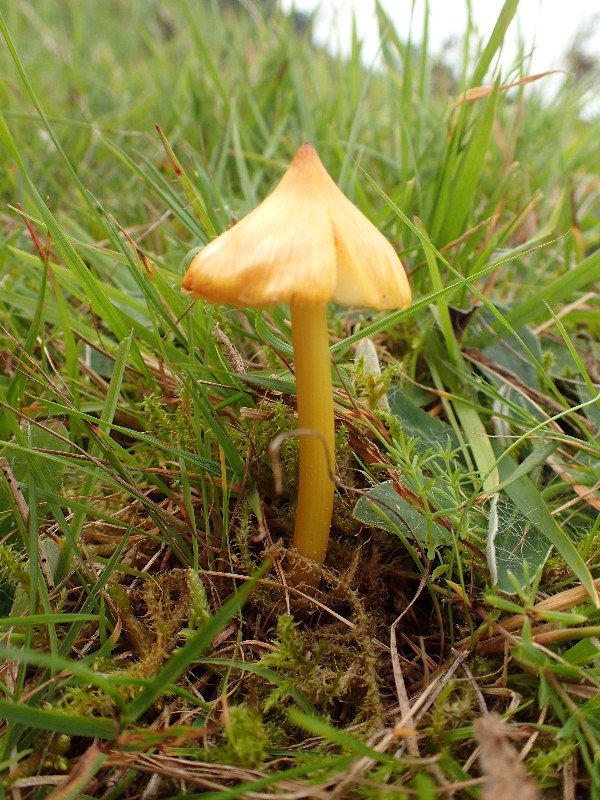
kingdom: Fungi
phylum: Basidiomycota
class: Agaricomycetes
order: Agaricales
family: Hygrophoraceae
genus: Hygrocybe
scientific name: Hygrocybe acutoconica
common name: spidspuklet vokshat
